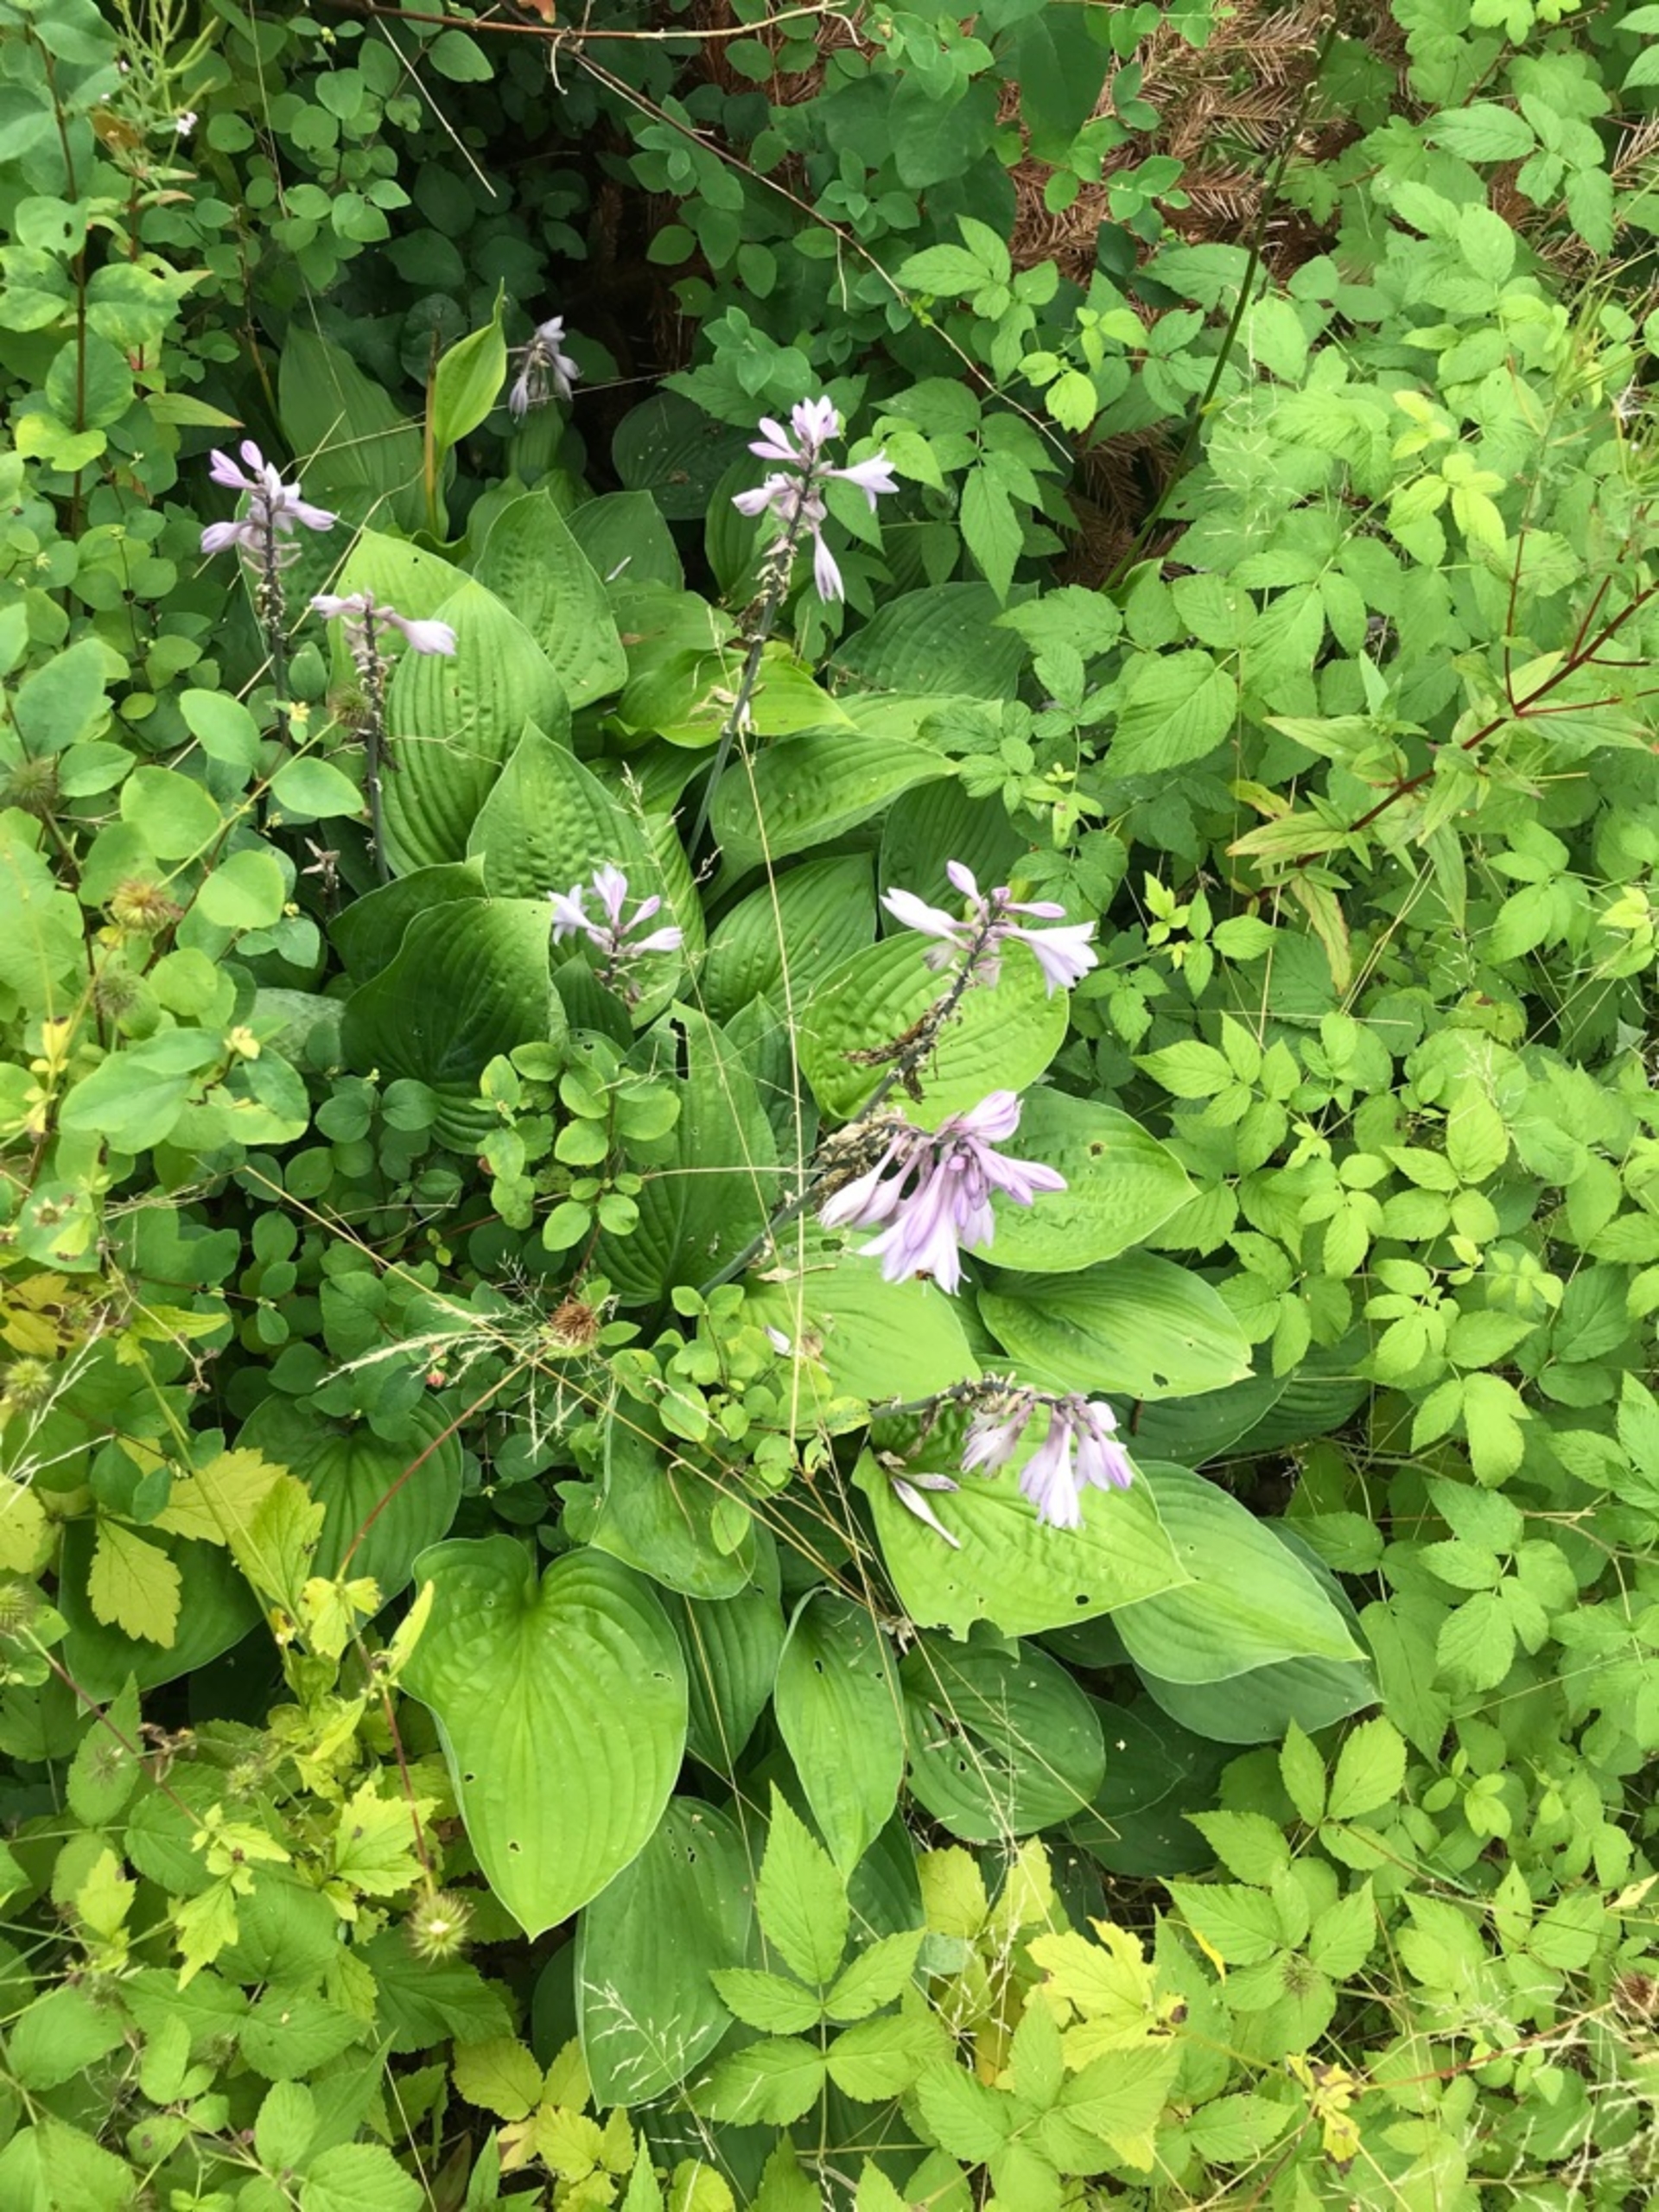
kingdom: Plantae
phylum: Tracheophyta
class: Liliopsida
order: Asparagales
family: Asparagaceae
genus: Hosta
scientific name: Hosta sieboldiana
